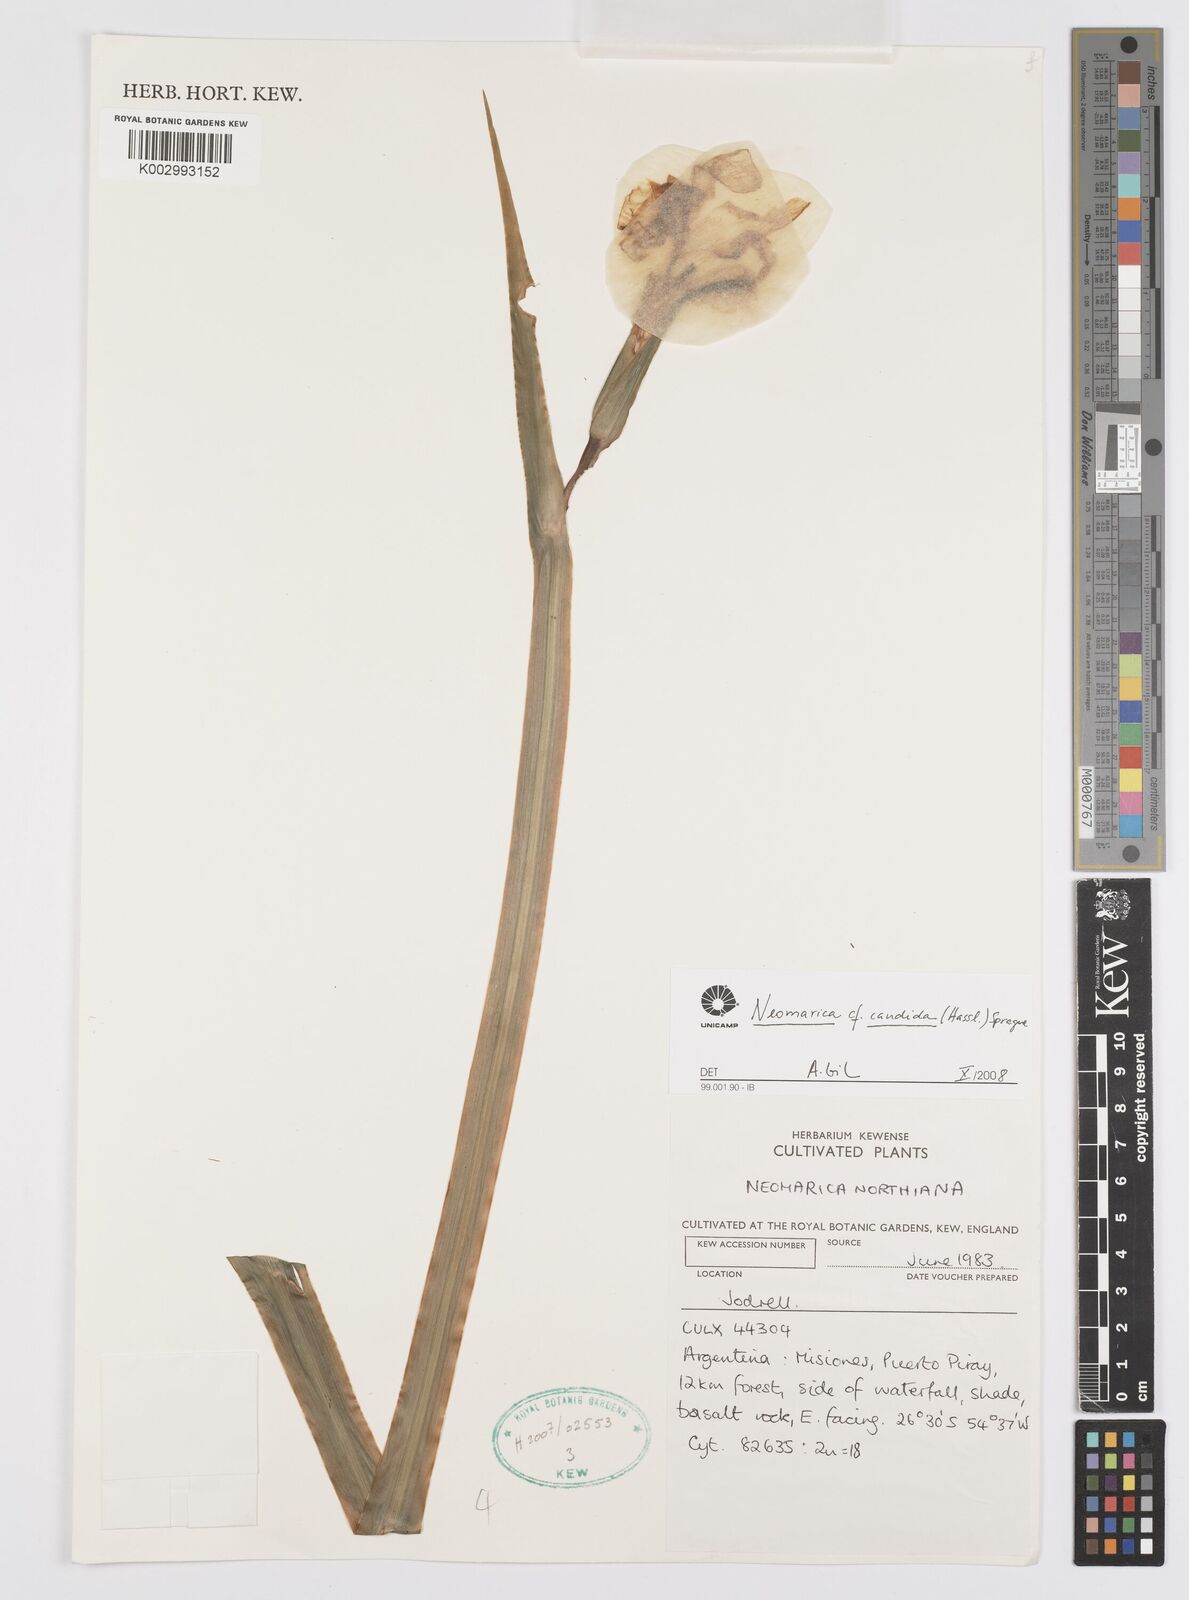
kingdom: Plantae
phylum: Tracheophyta
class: Liliopsida
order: Asparagales
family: Iridaceae
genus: Trimezia
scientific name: Trimezia candida
